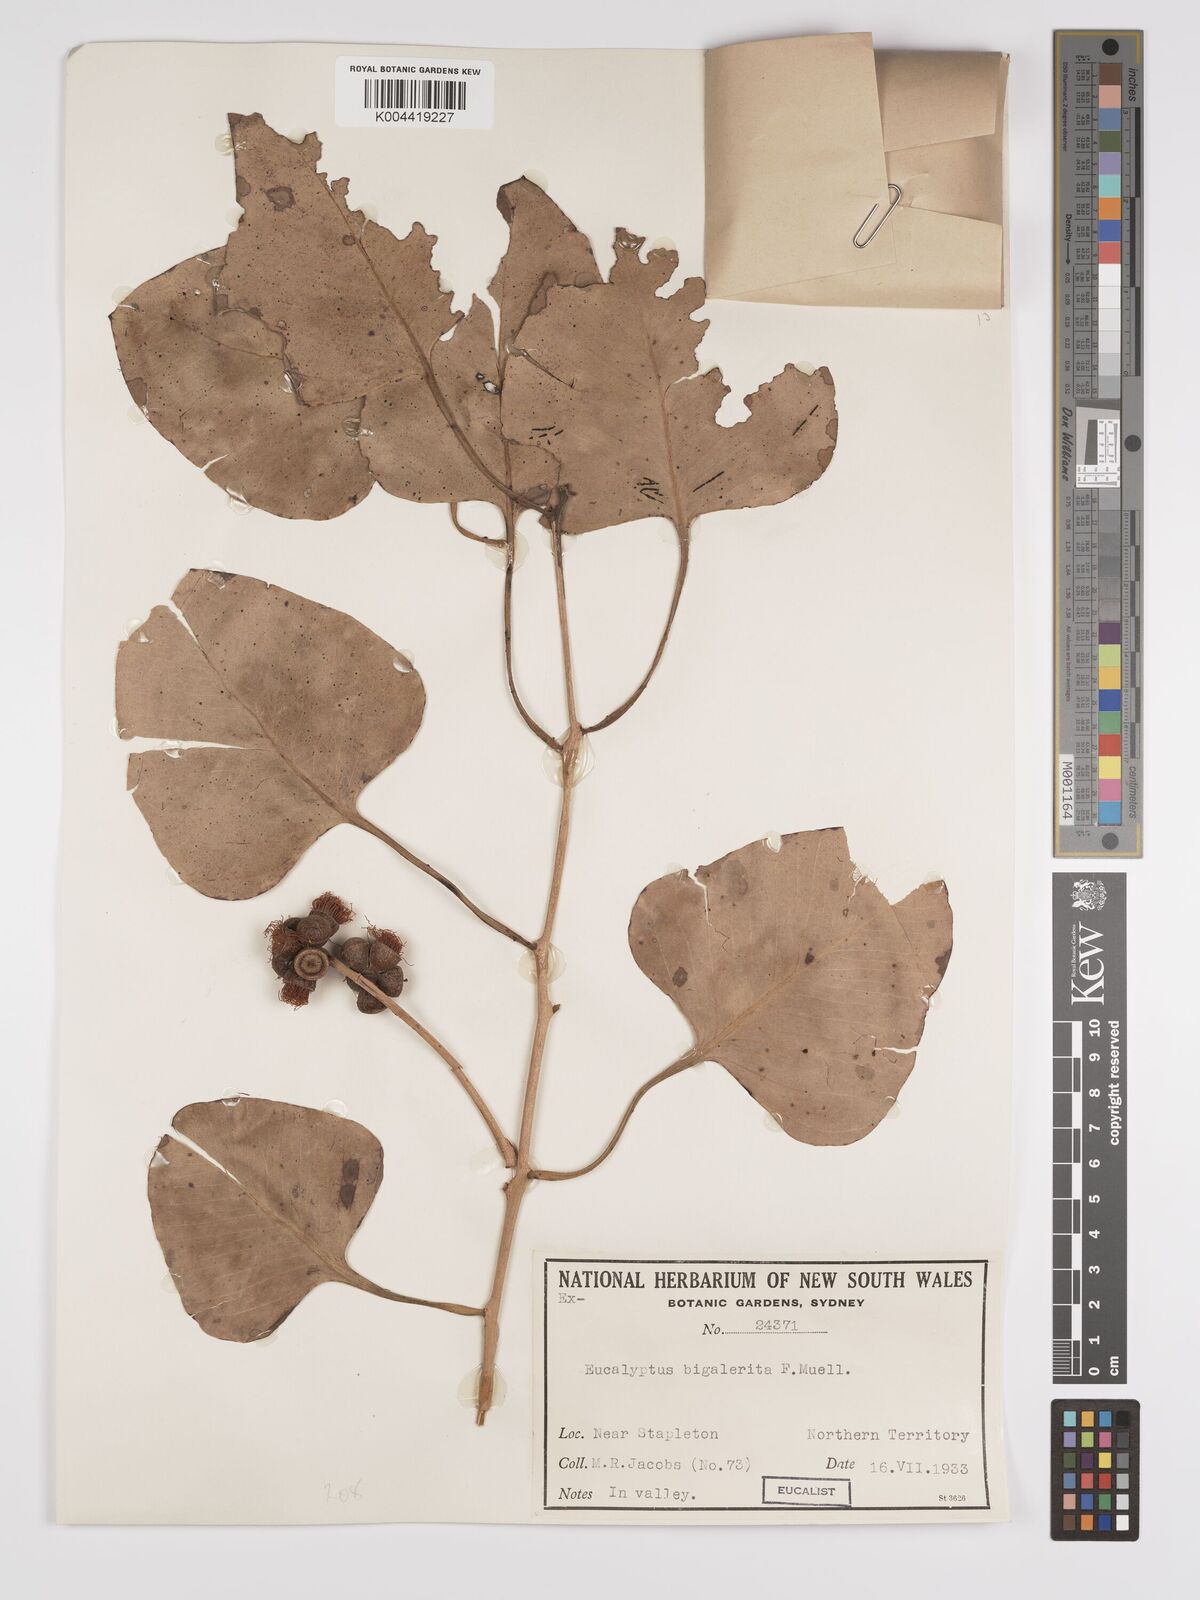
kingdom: Plantae
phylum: Tracheophyta
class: Magnoliopsida
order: Myrtales
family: Myrtaceae
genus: Eucalyptus
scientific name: Eucalyptus bigalerita
